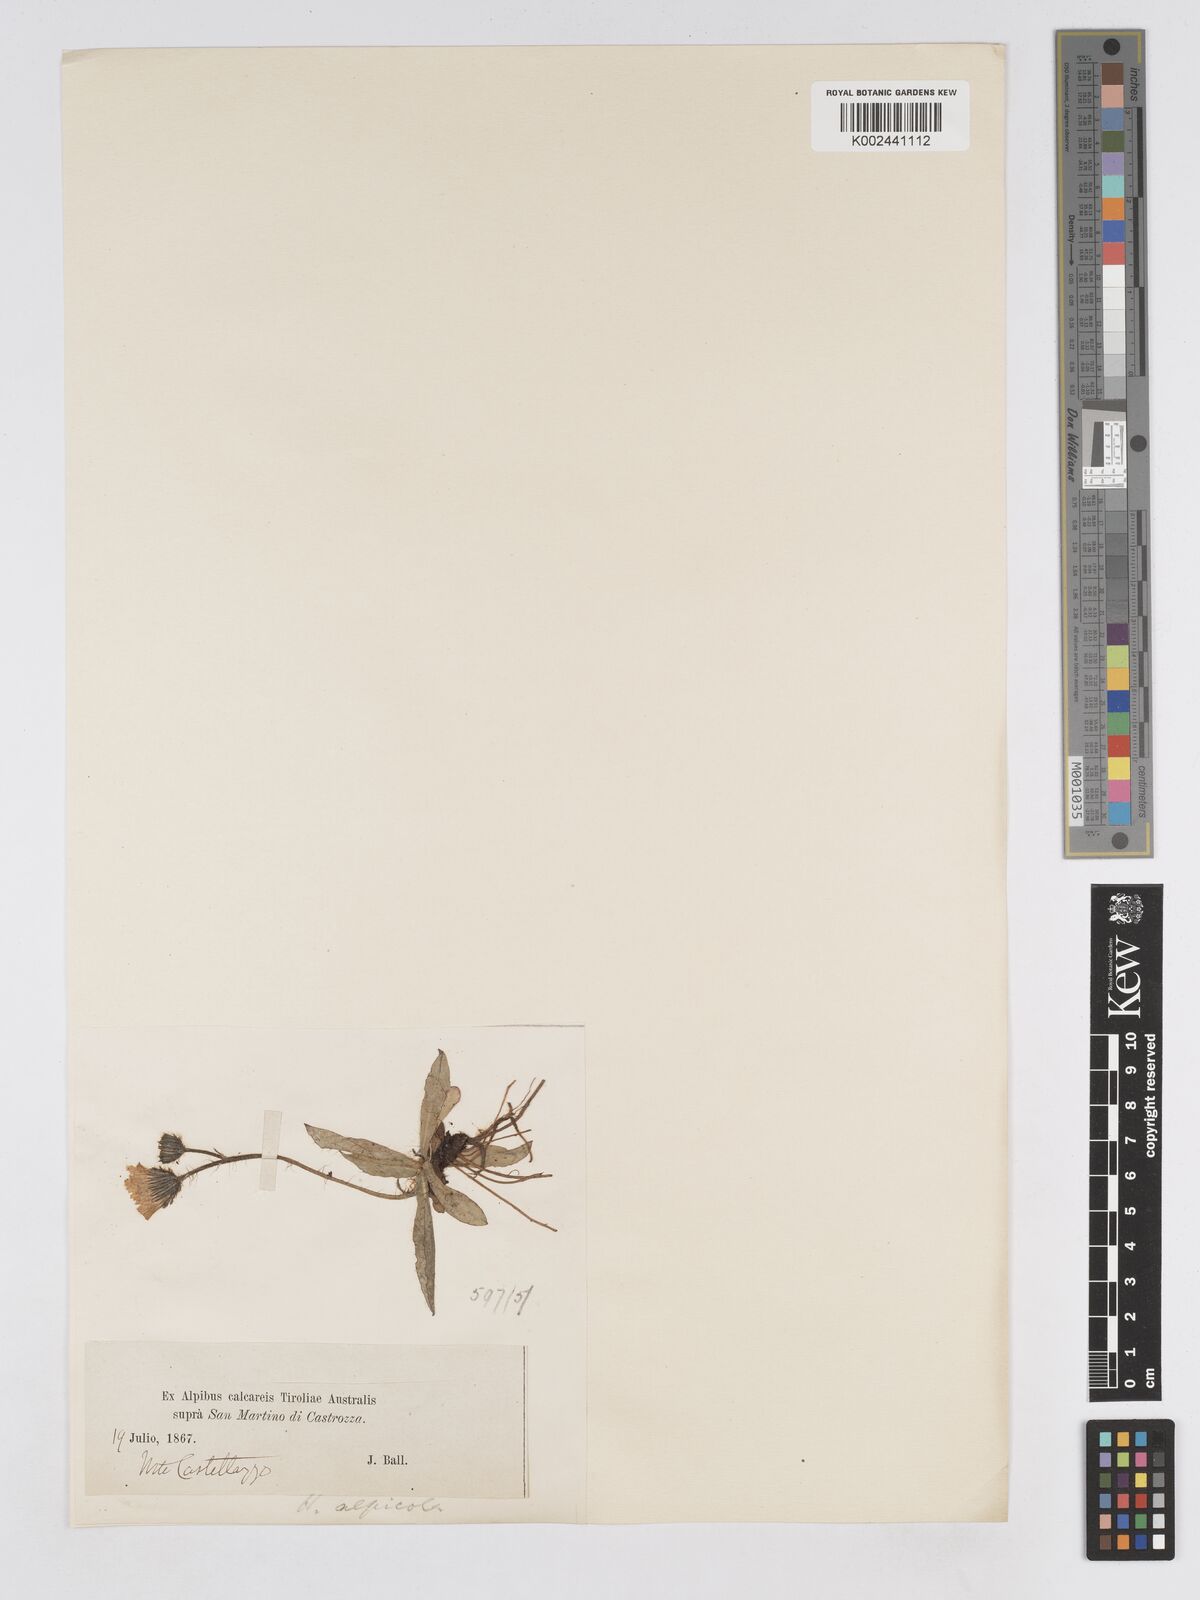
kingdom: Plantae
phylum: Tracheophyta
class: Magnoliopsida
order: Asterales
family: Asteraceae
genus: Pilosella
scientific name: Pilosella lathraea
